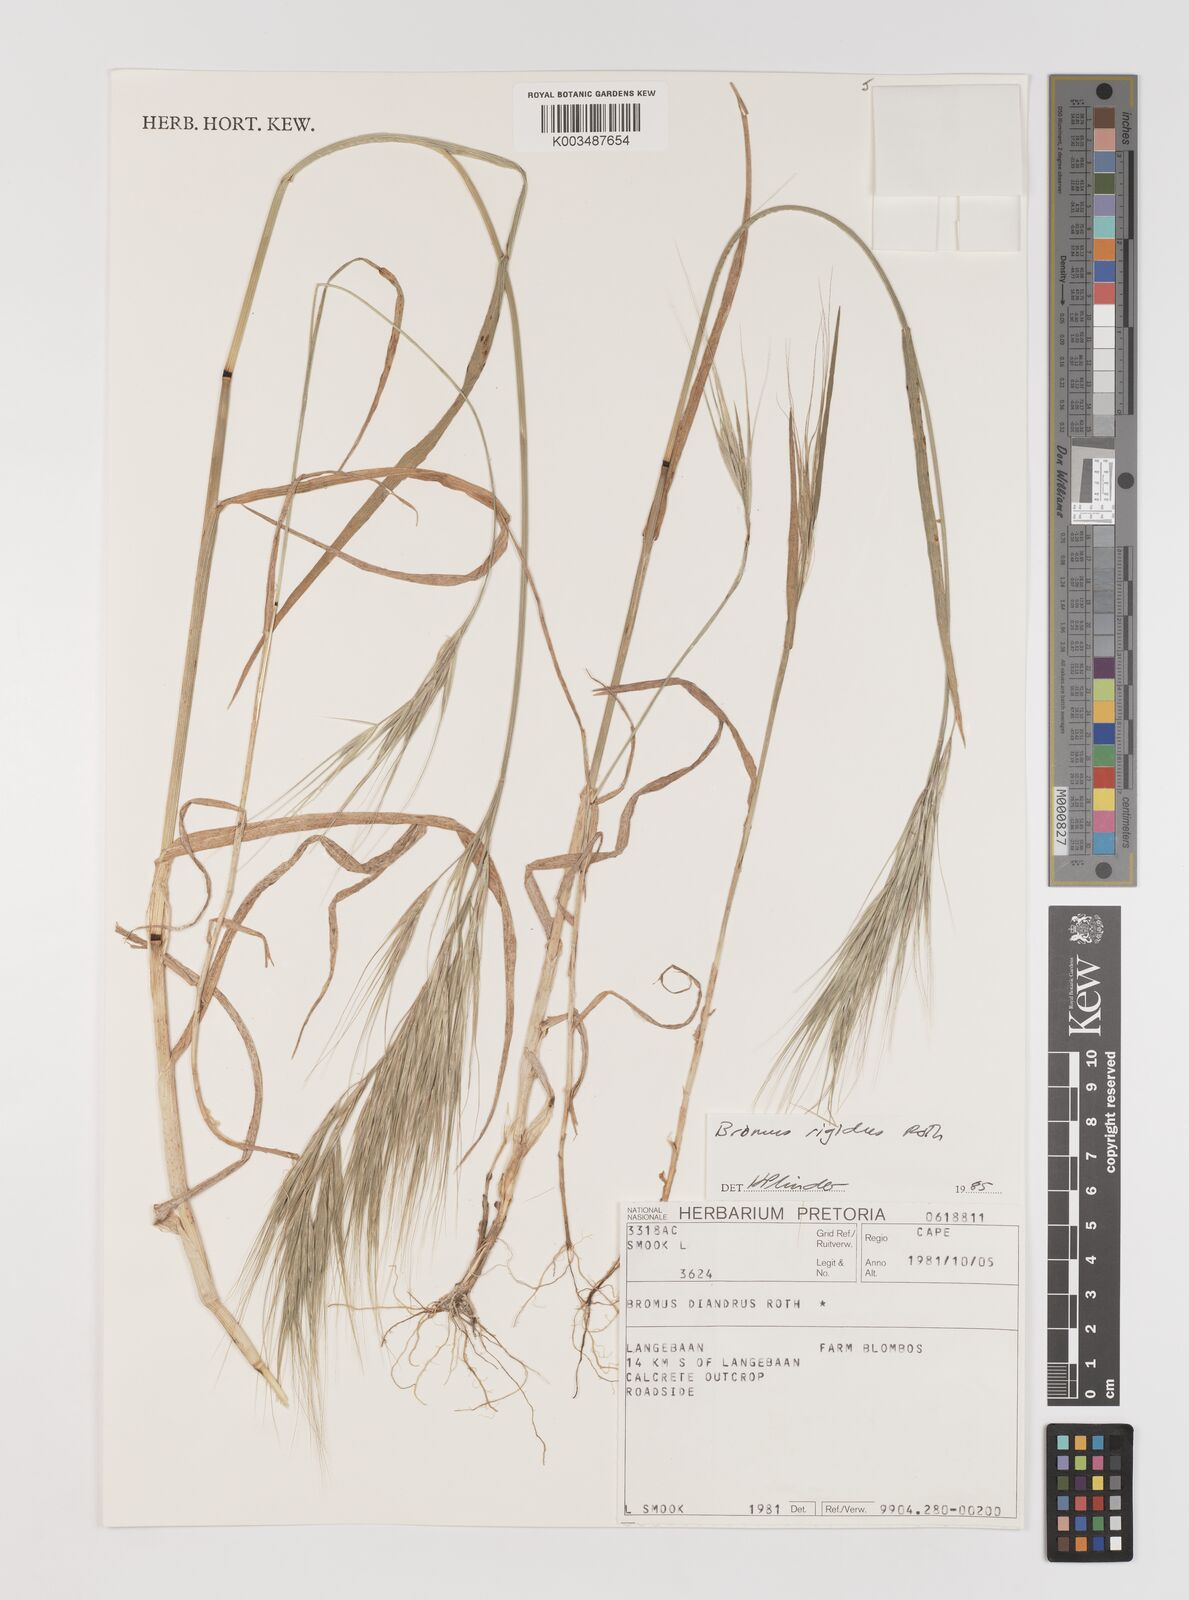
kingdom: Plantae
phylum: Tracheophyta
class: Liliopsida
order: Poales
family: Poaceae
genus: Bromus
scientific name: Bromus diandrus
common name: Ripgut brome
